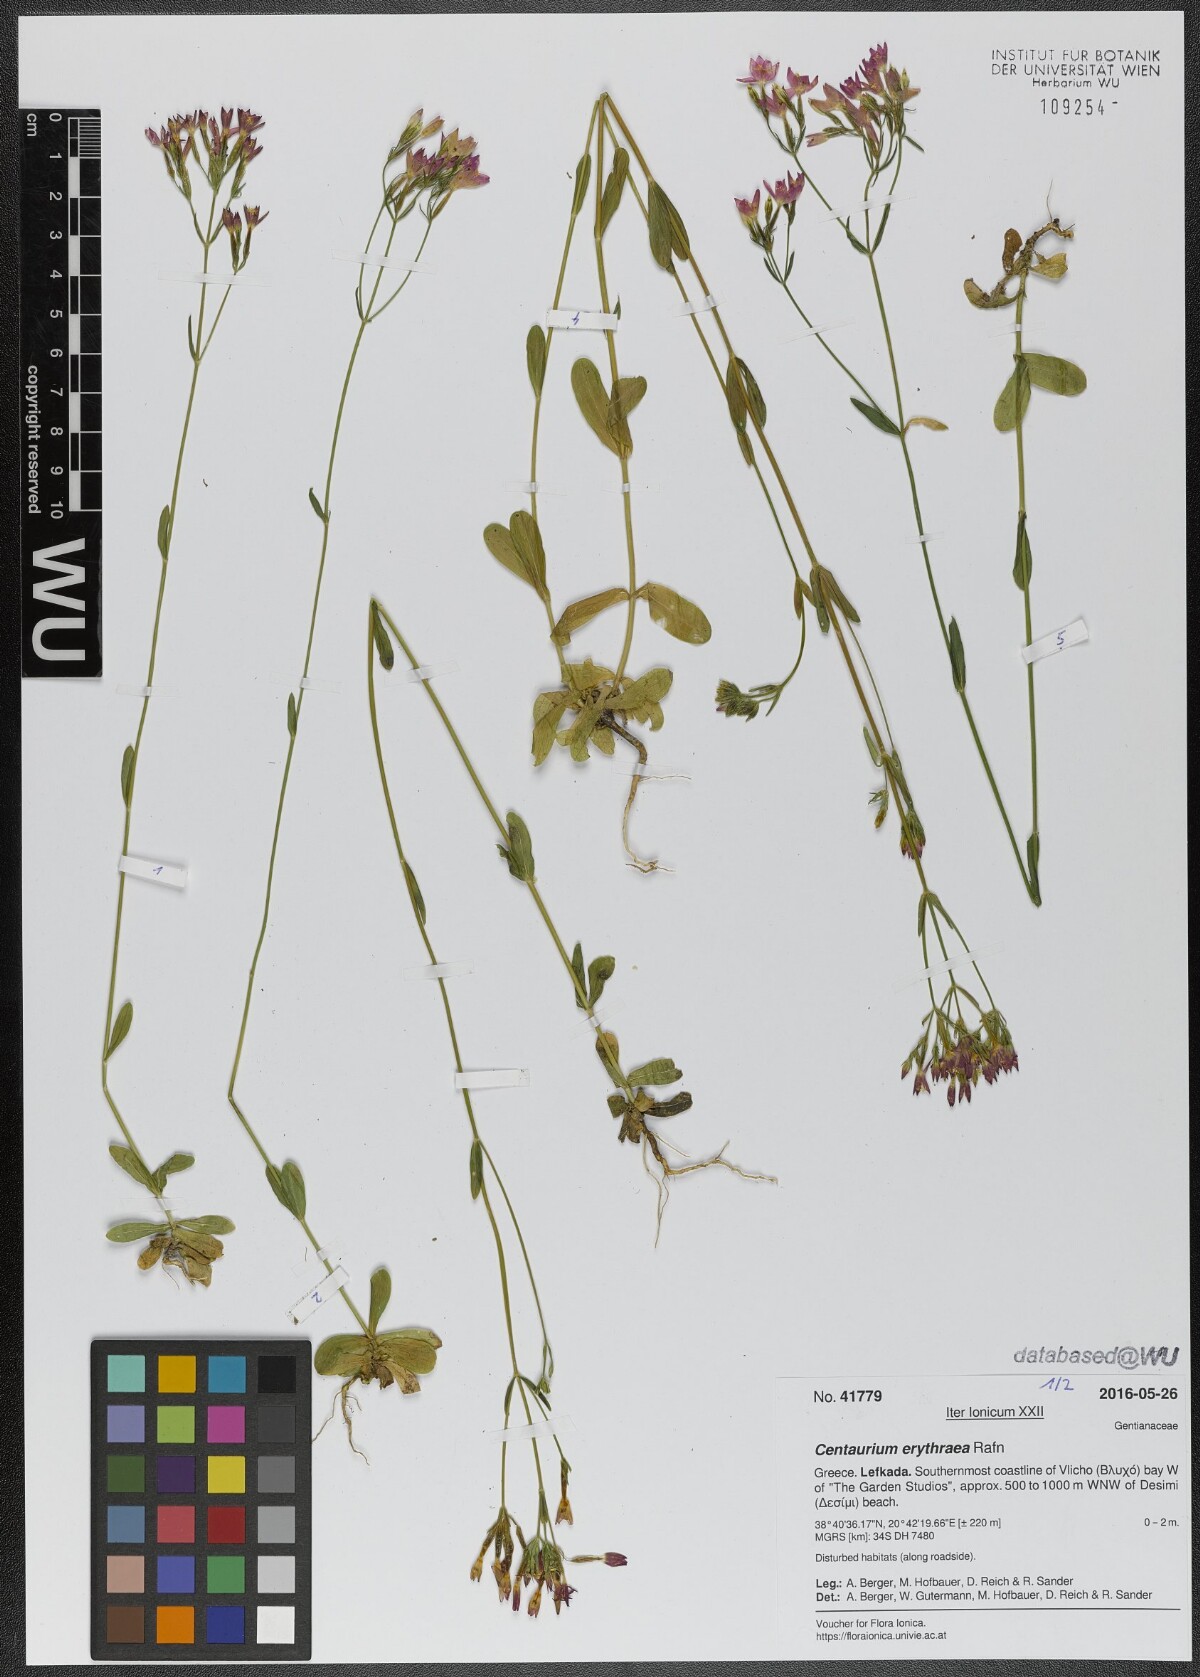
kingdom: Plantae
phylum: Tracheophyta
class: Magnoliopsida
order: Gentianales
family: Gentianaceae
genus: Centaurium
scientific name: Centaurium erythraea
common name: Common centaury
